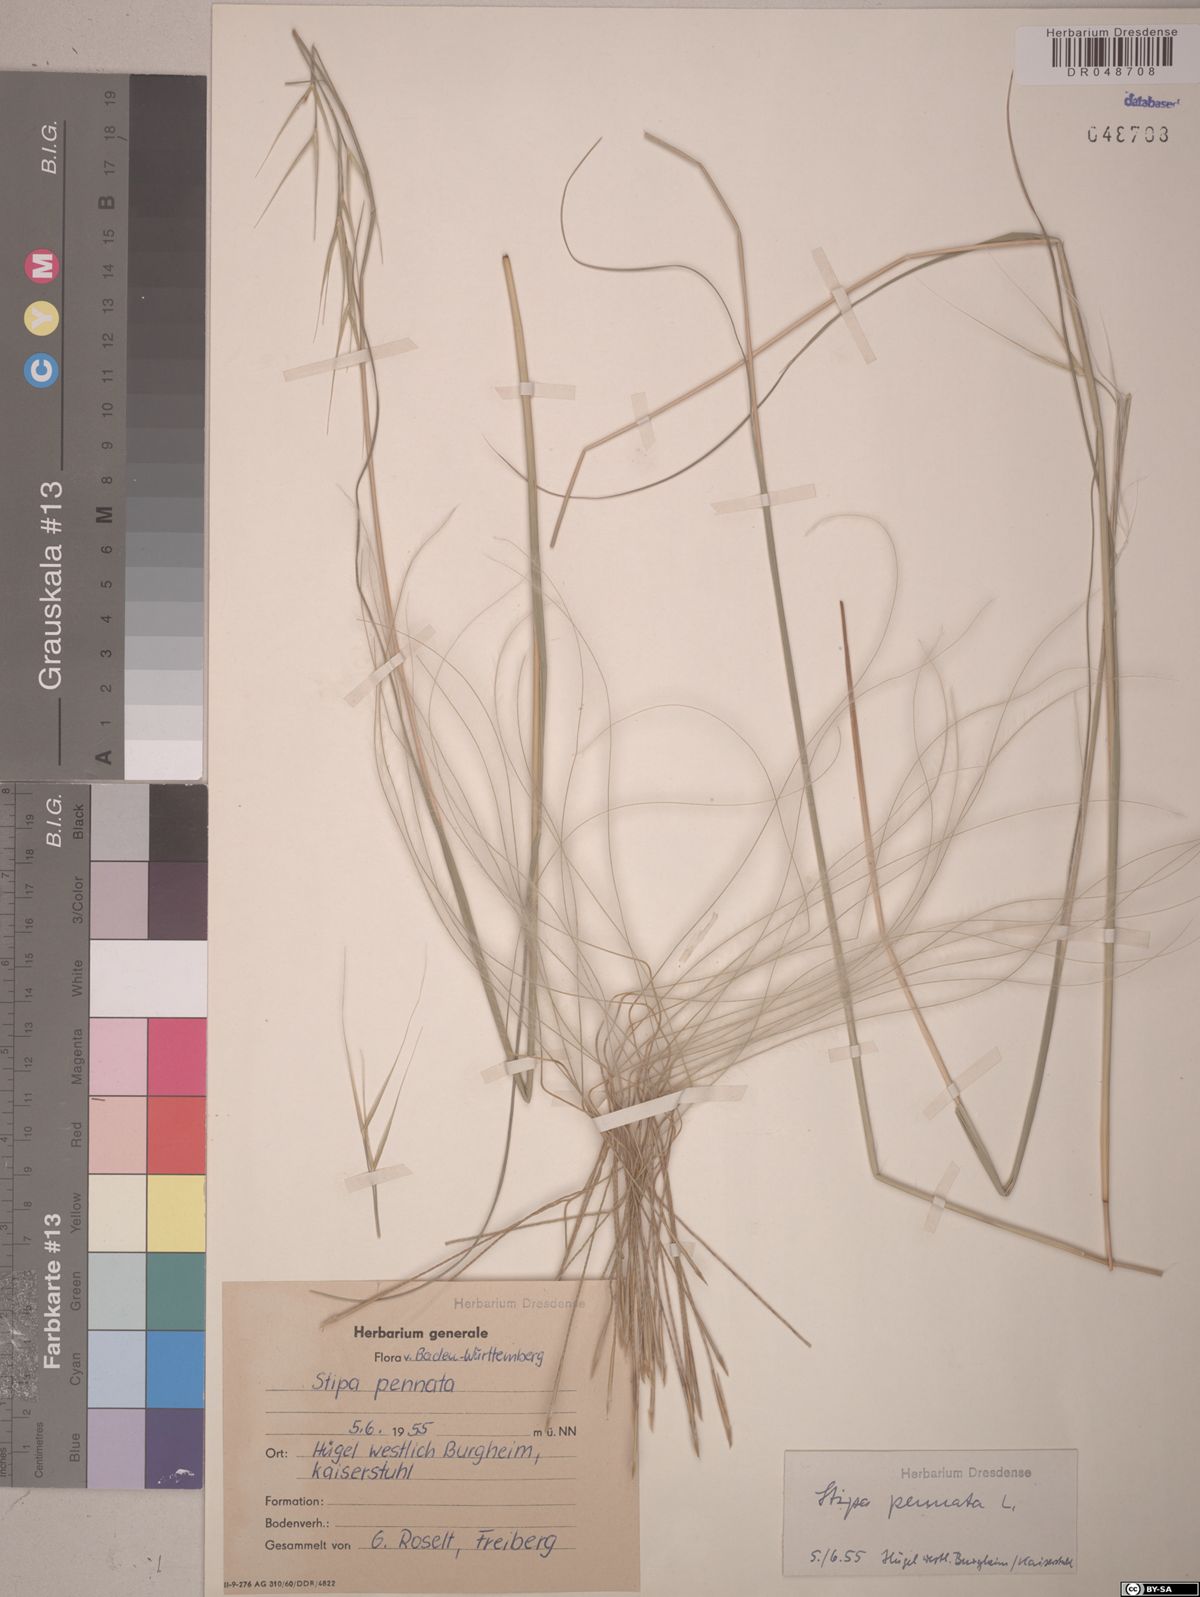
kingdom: Plantae
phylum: Tracheophyta
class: Liliopsida
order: Poales
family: Poaceae
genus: Stipa
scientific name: Stipa pennata
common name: European feather grass
